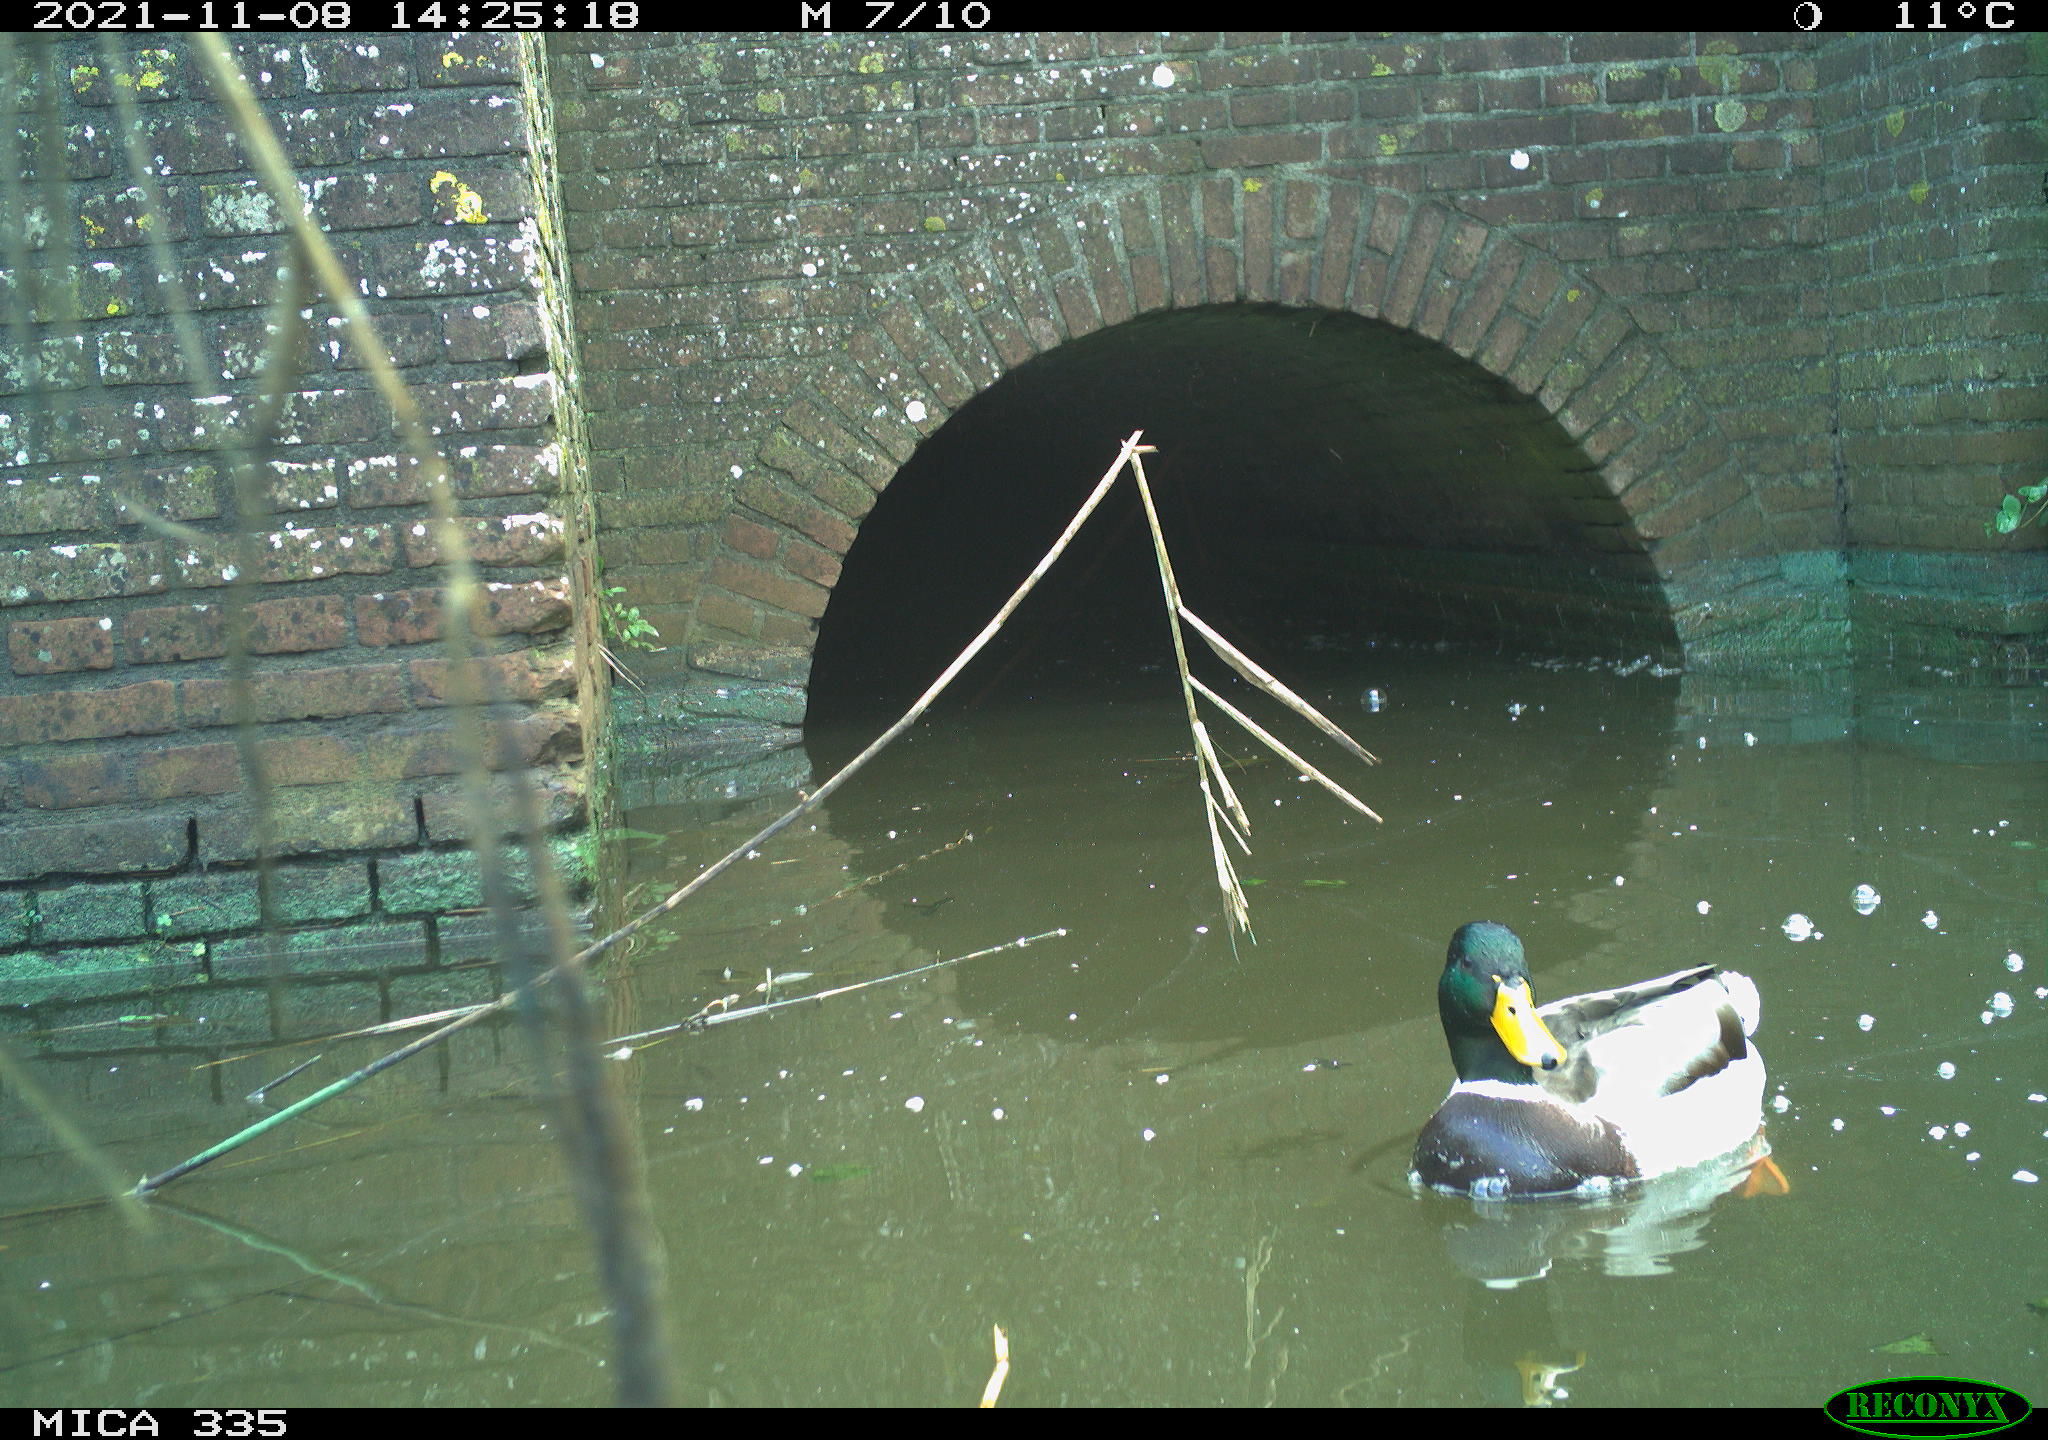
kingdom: Animalia
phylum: Chordata
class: Aves
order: Anseriformes
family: Anatidae
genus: Anas
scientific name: Anas platyrhynchos
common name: Mallard
